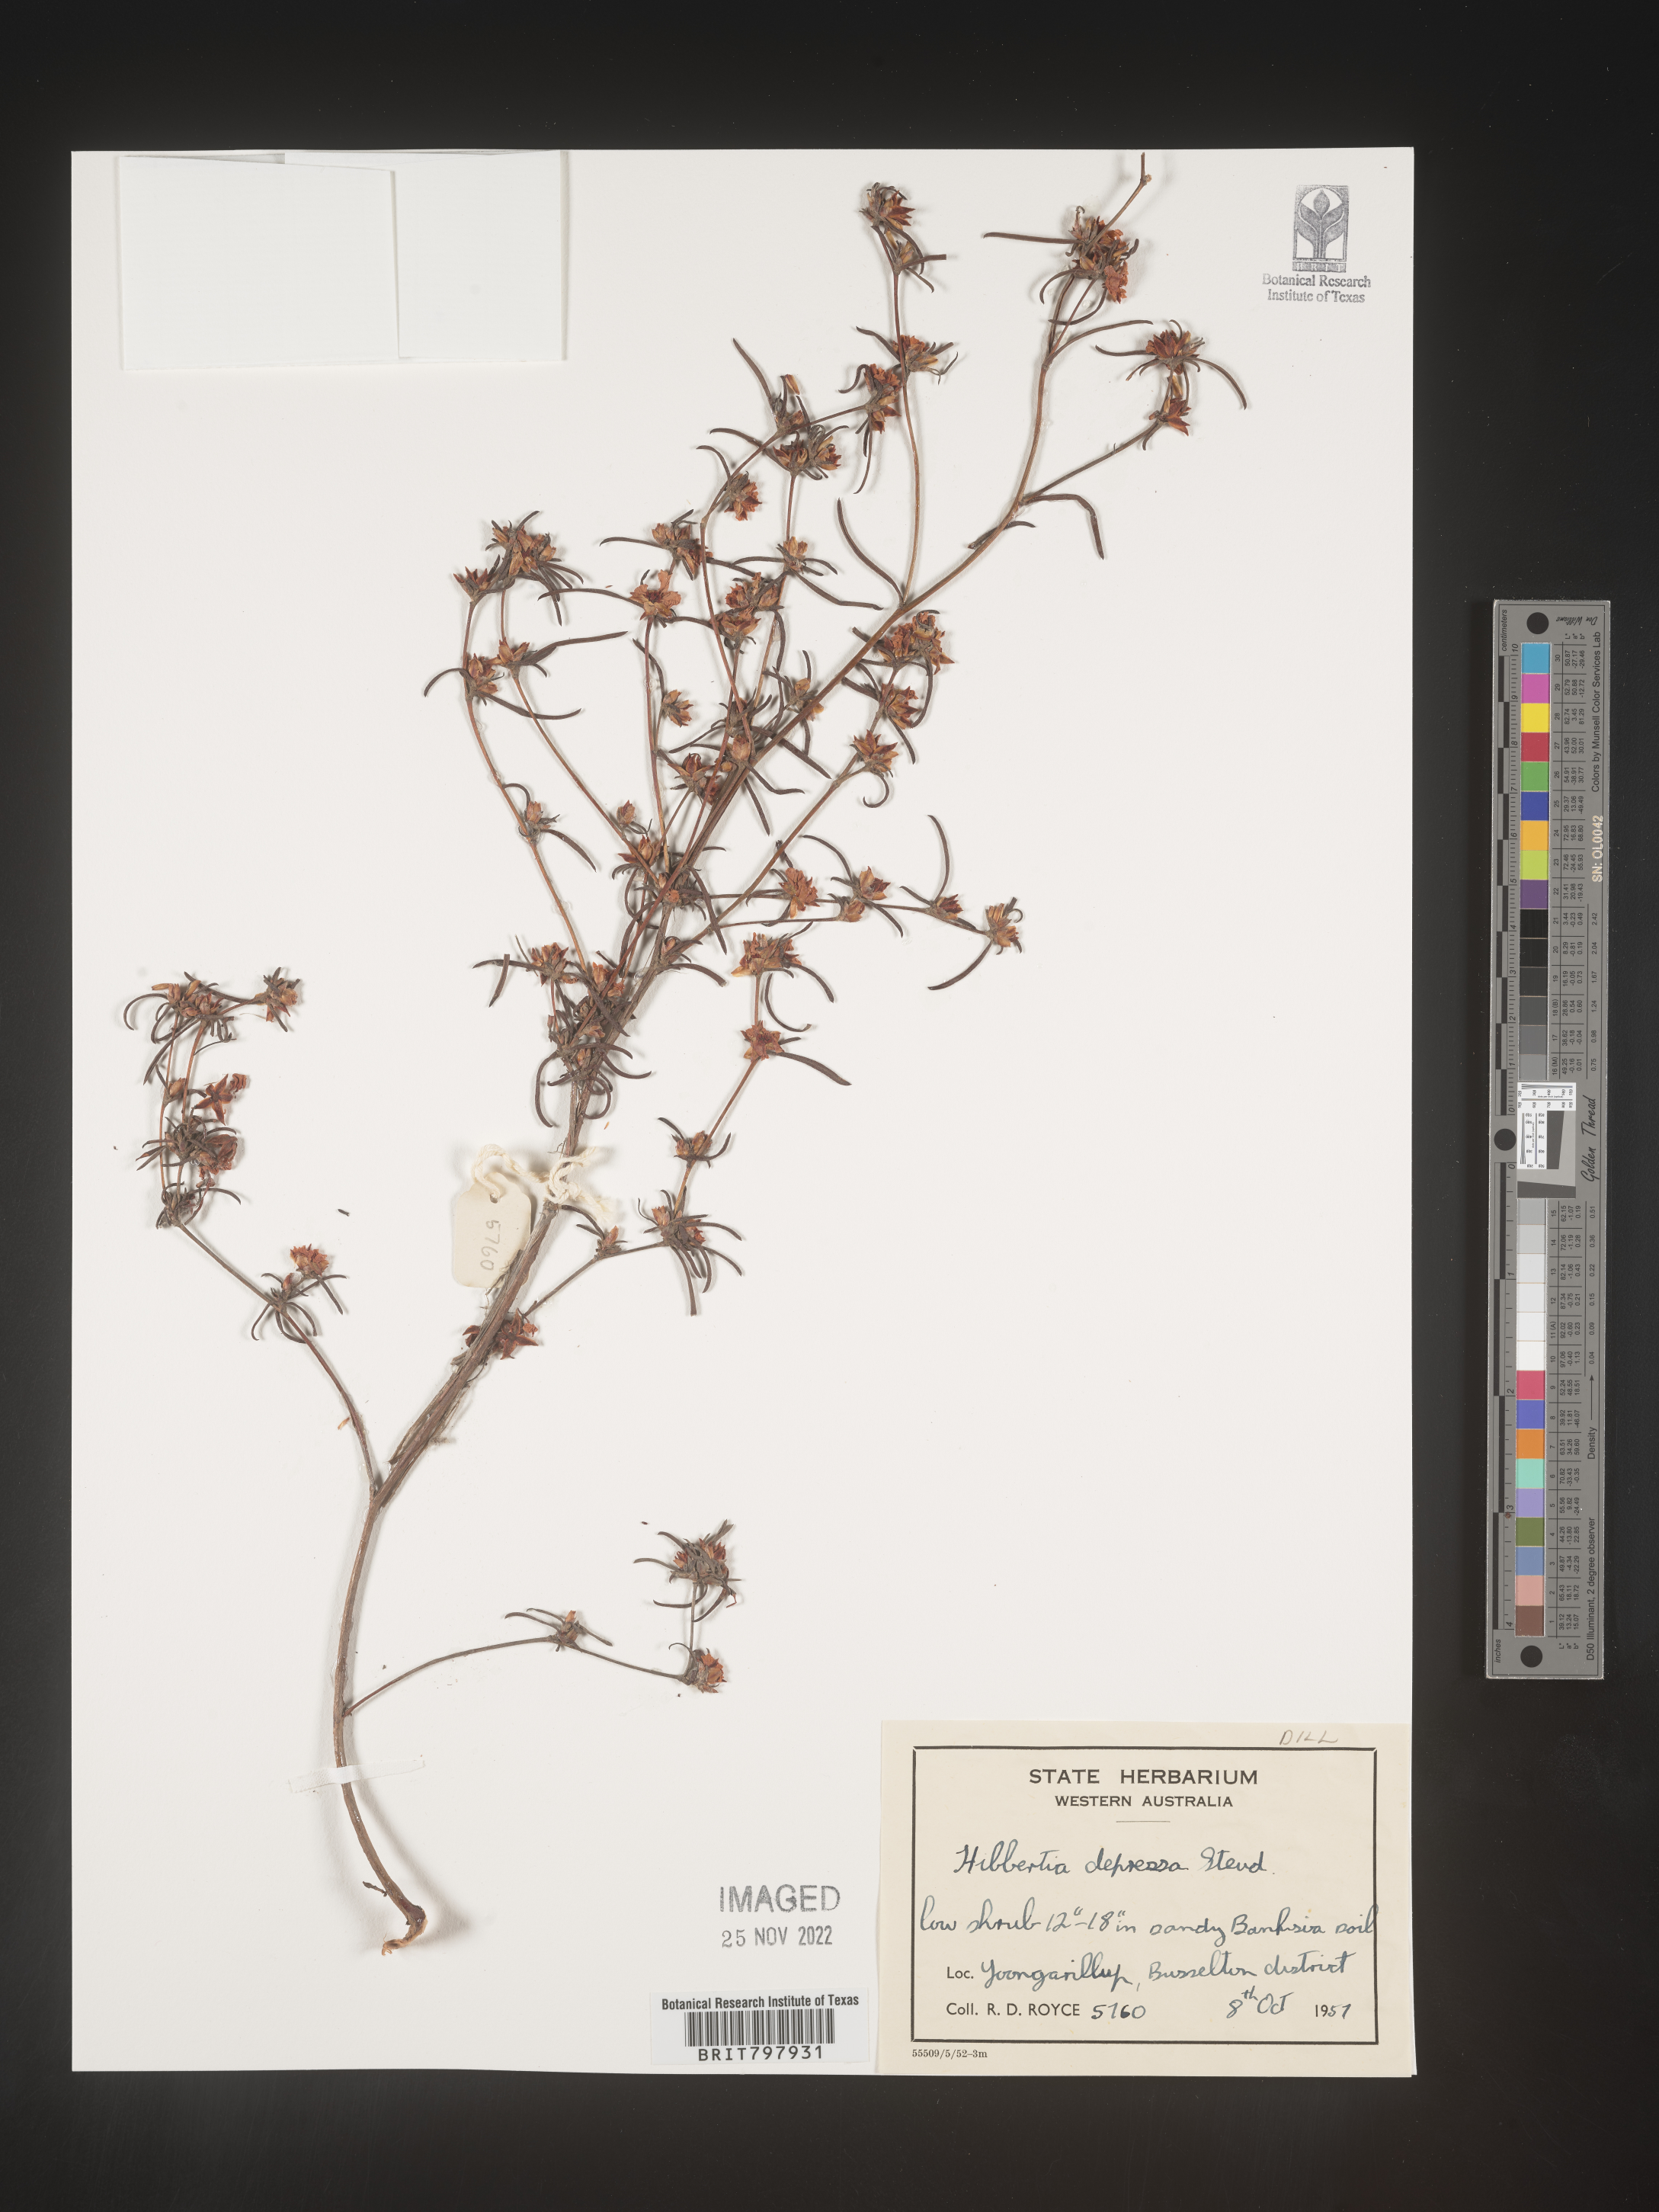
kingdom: Plantae
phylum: Tracheophyta
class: Magnoliopsida
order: Dilleniales
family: Dilleniaceae
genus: Hibbertia
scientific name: Hibbertia
